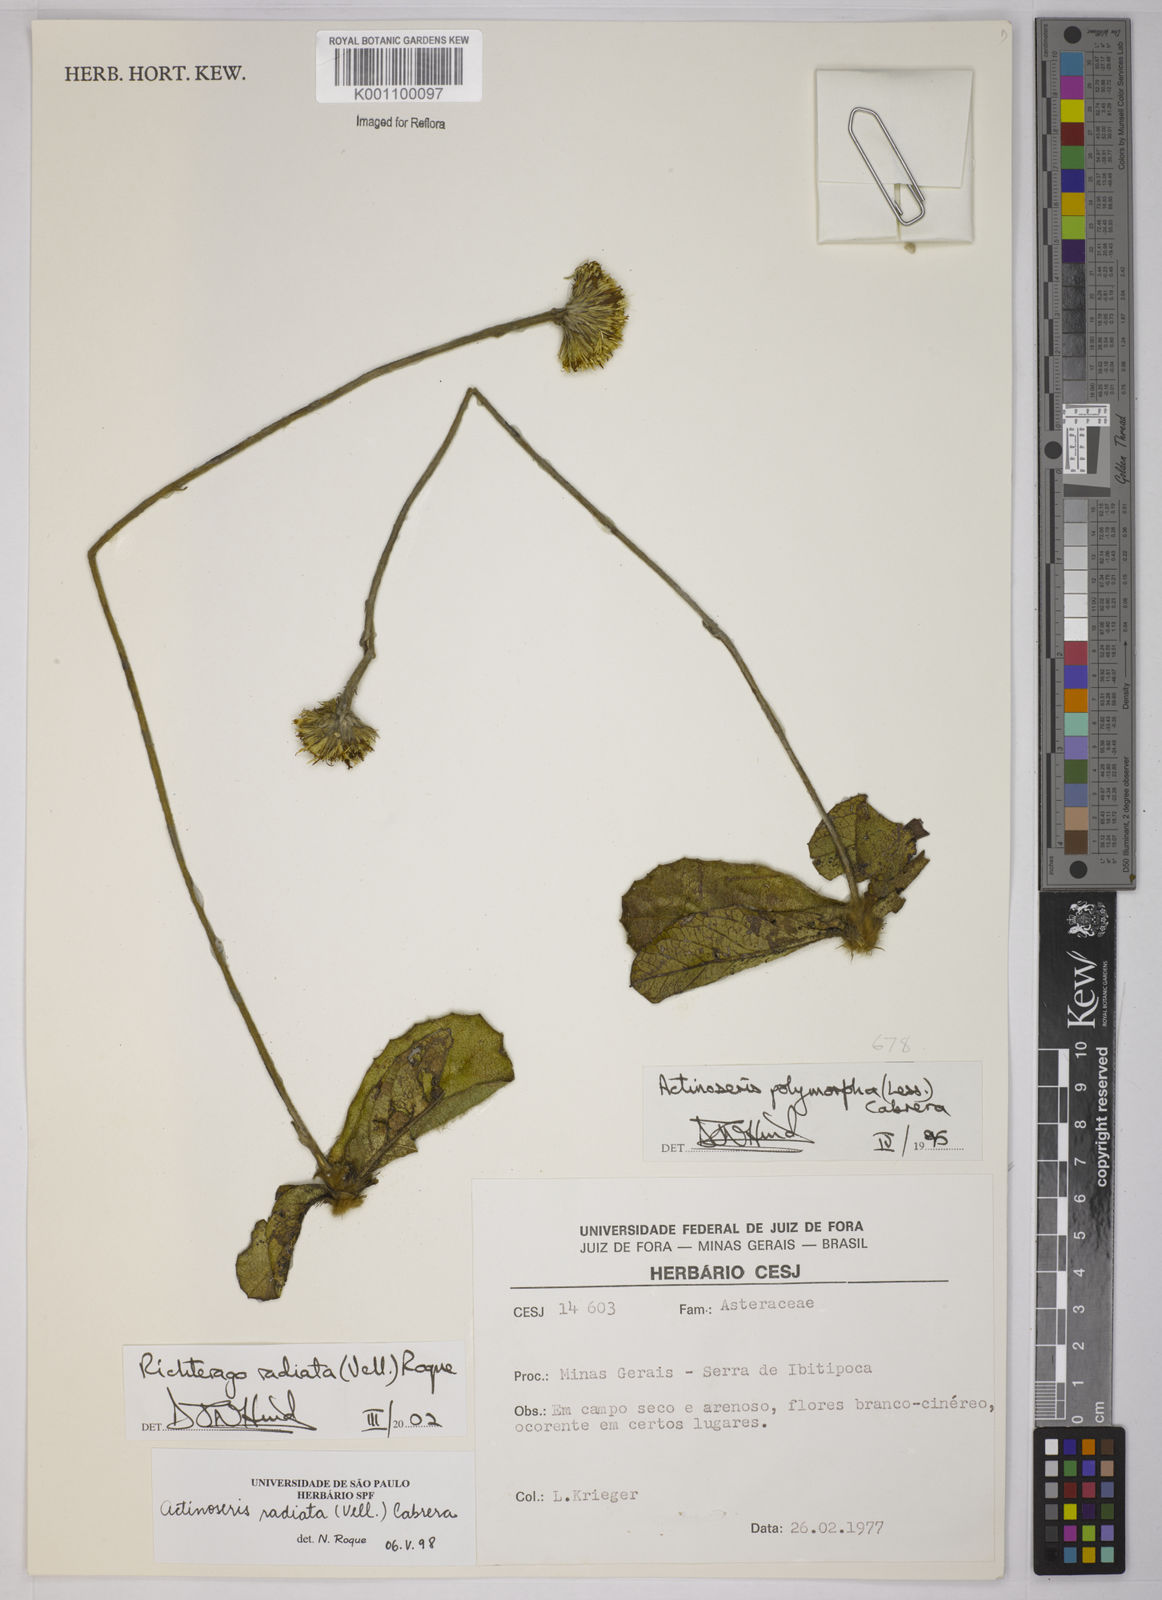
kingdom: Plantae
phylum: Tracheophyta
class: Magnoliopsida
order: Asterales
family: Asteraceae
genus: Richterago
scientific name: Richterago radiata
